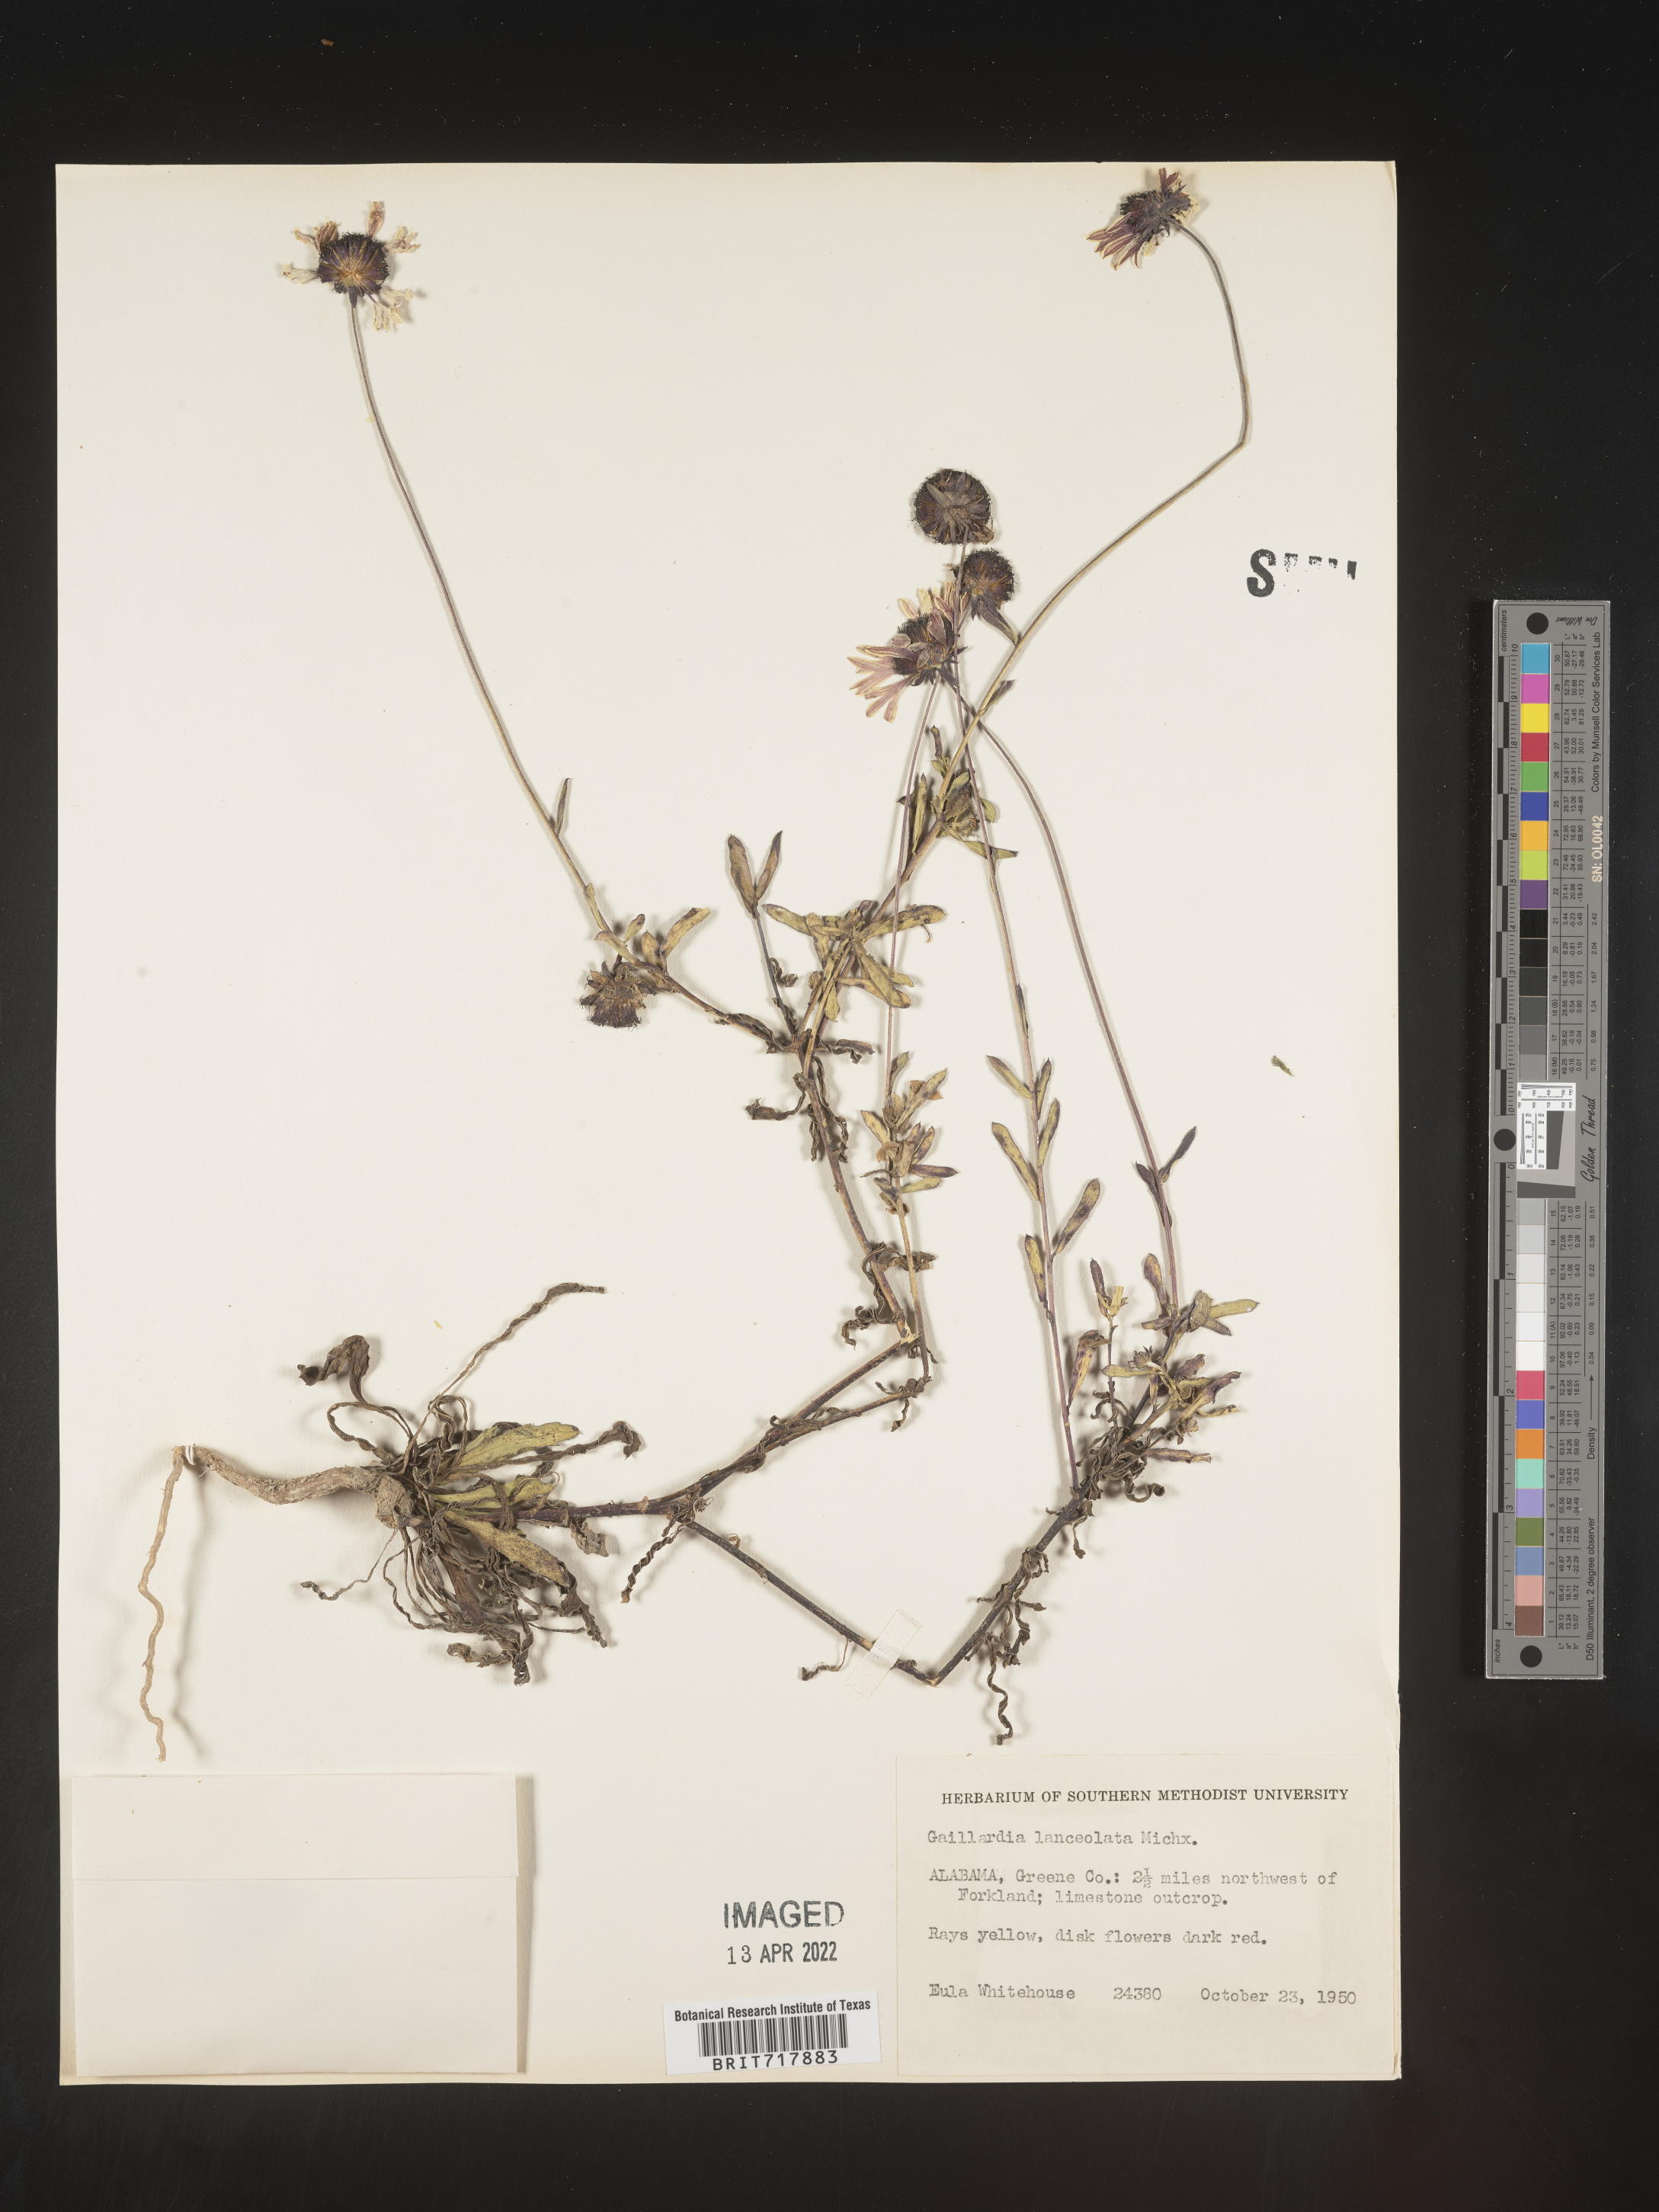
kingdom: Plantae
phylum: Tracheophyta
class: Magnoliopsida
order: Asterales
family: Asteraceae
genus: Gaillardia
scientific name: Gaillardia aestivalis
